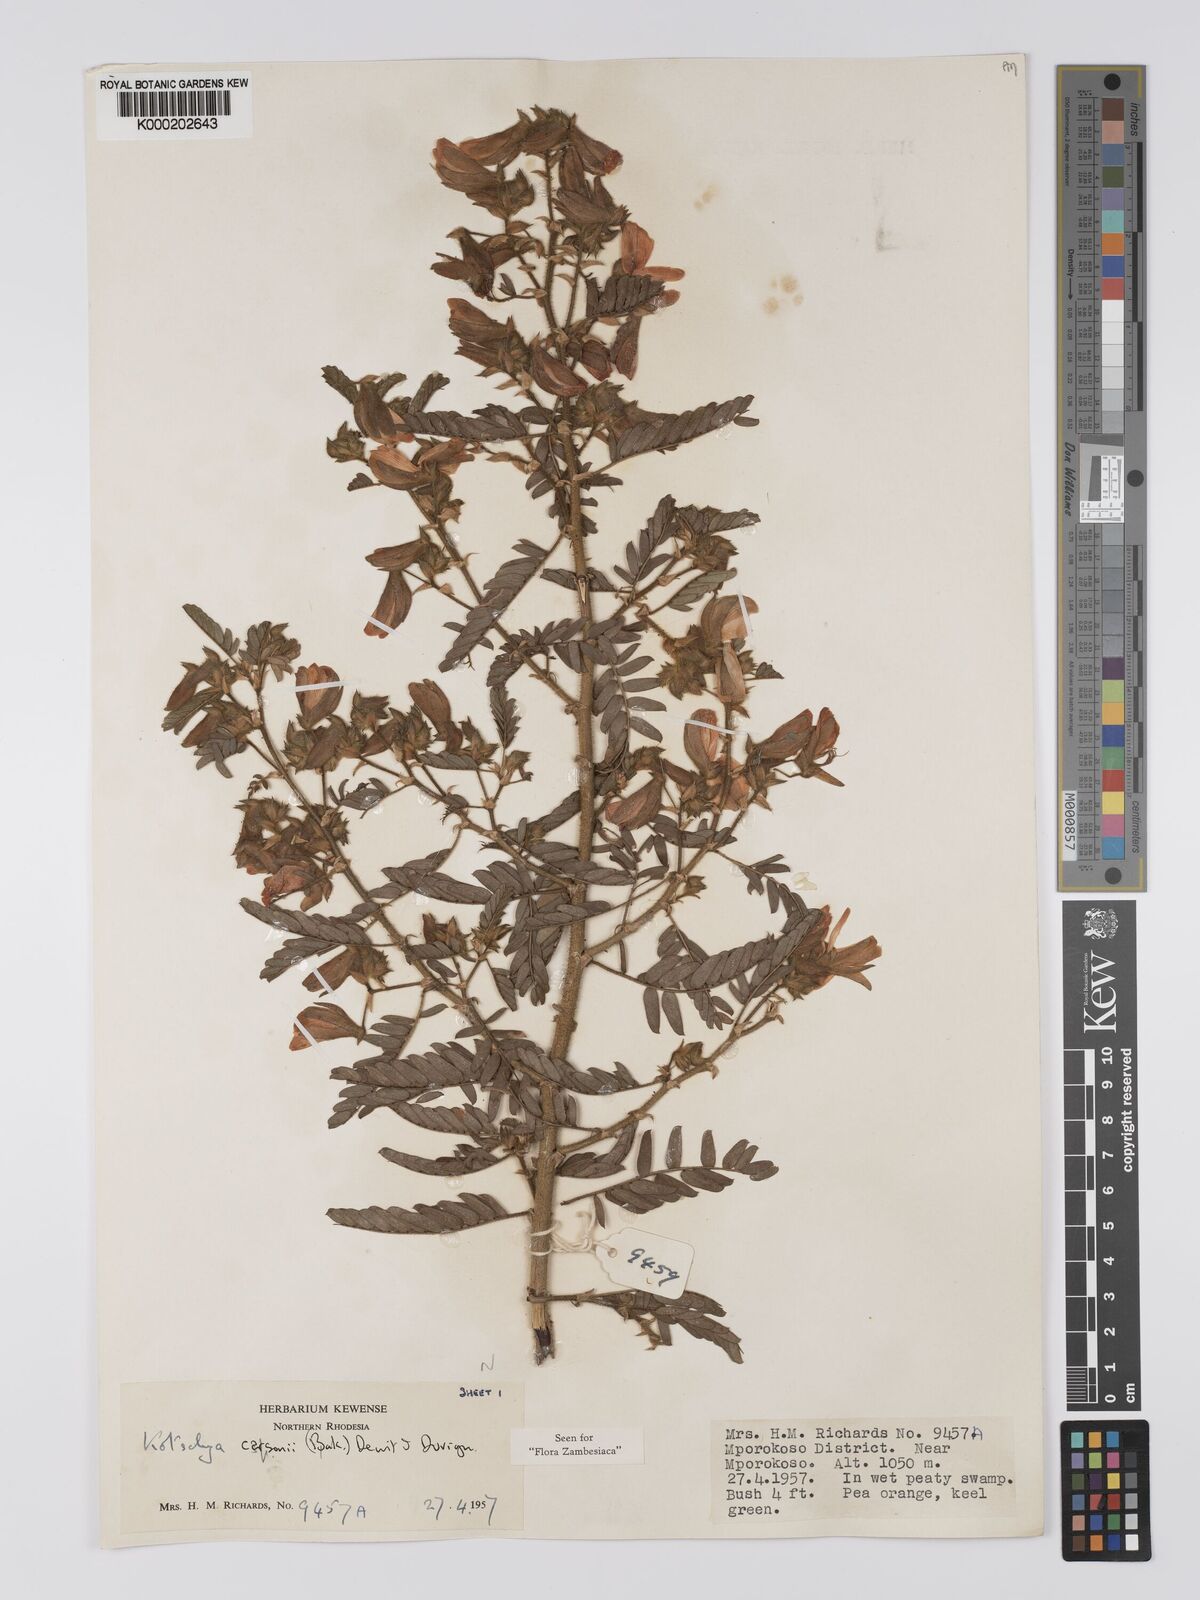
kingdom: Plantae
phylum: Tracheophyta
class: Magnoliopsida
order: Fabales
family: Fabaceae
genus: Kotschya
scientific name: Kotschya carsonii
